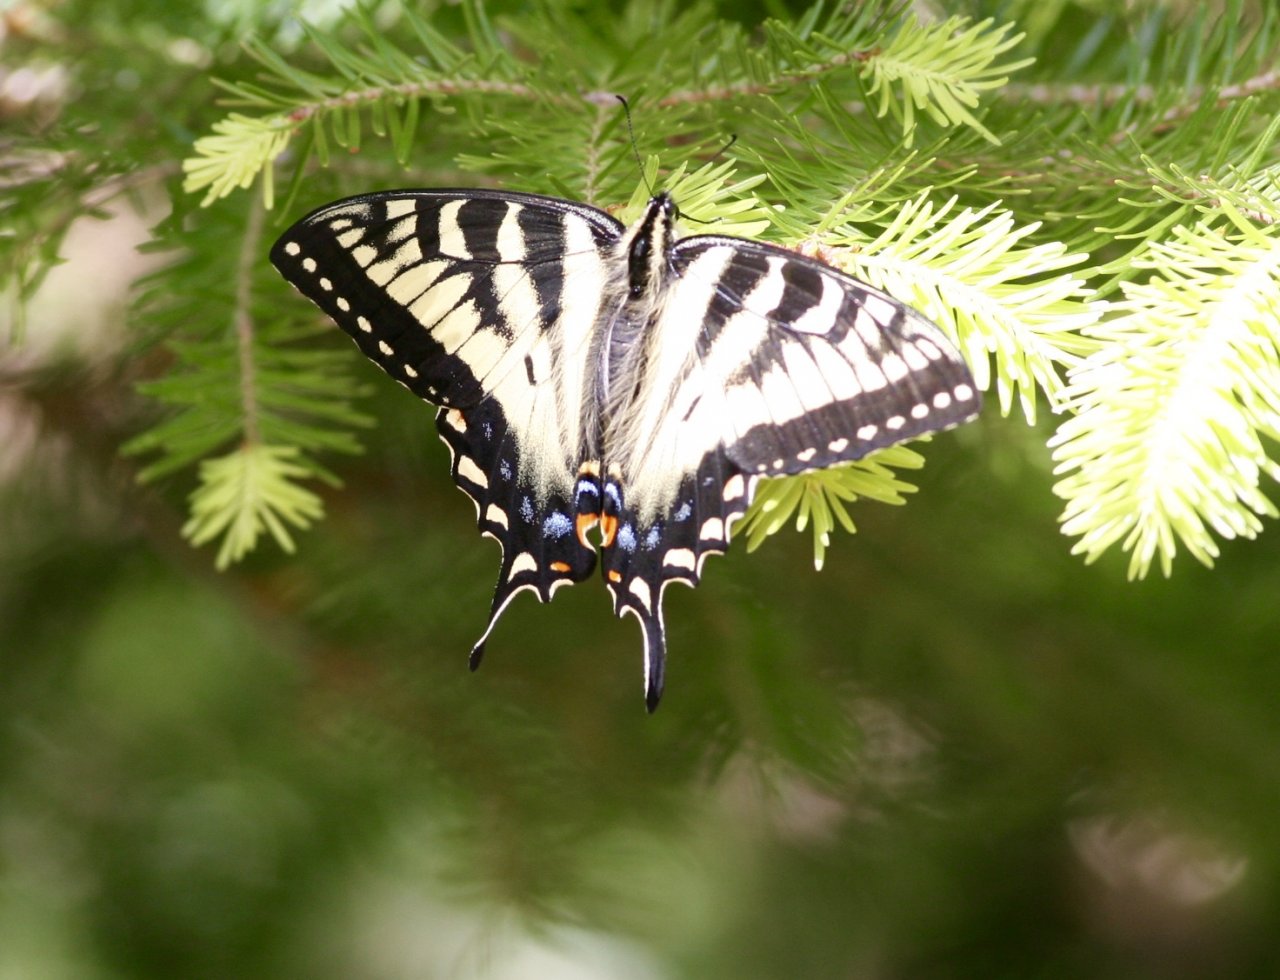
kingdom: Animalia
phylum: Arthropoda
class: Insecta
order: Lepidoptera
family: Papilionidae
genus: Pterourus
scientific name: Pterourus canadensis
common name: Canadian Tiger Swallowtail
